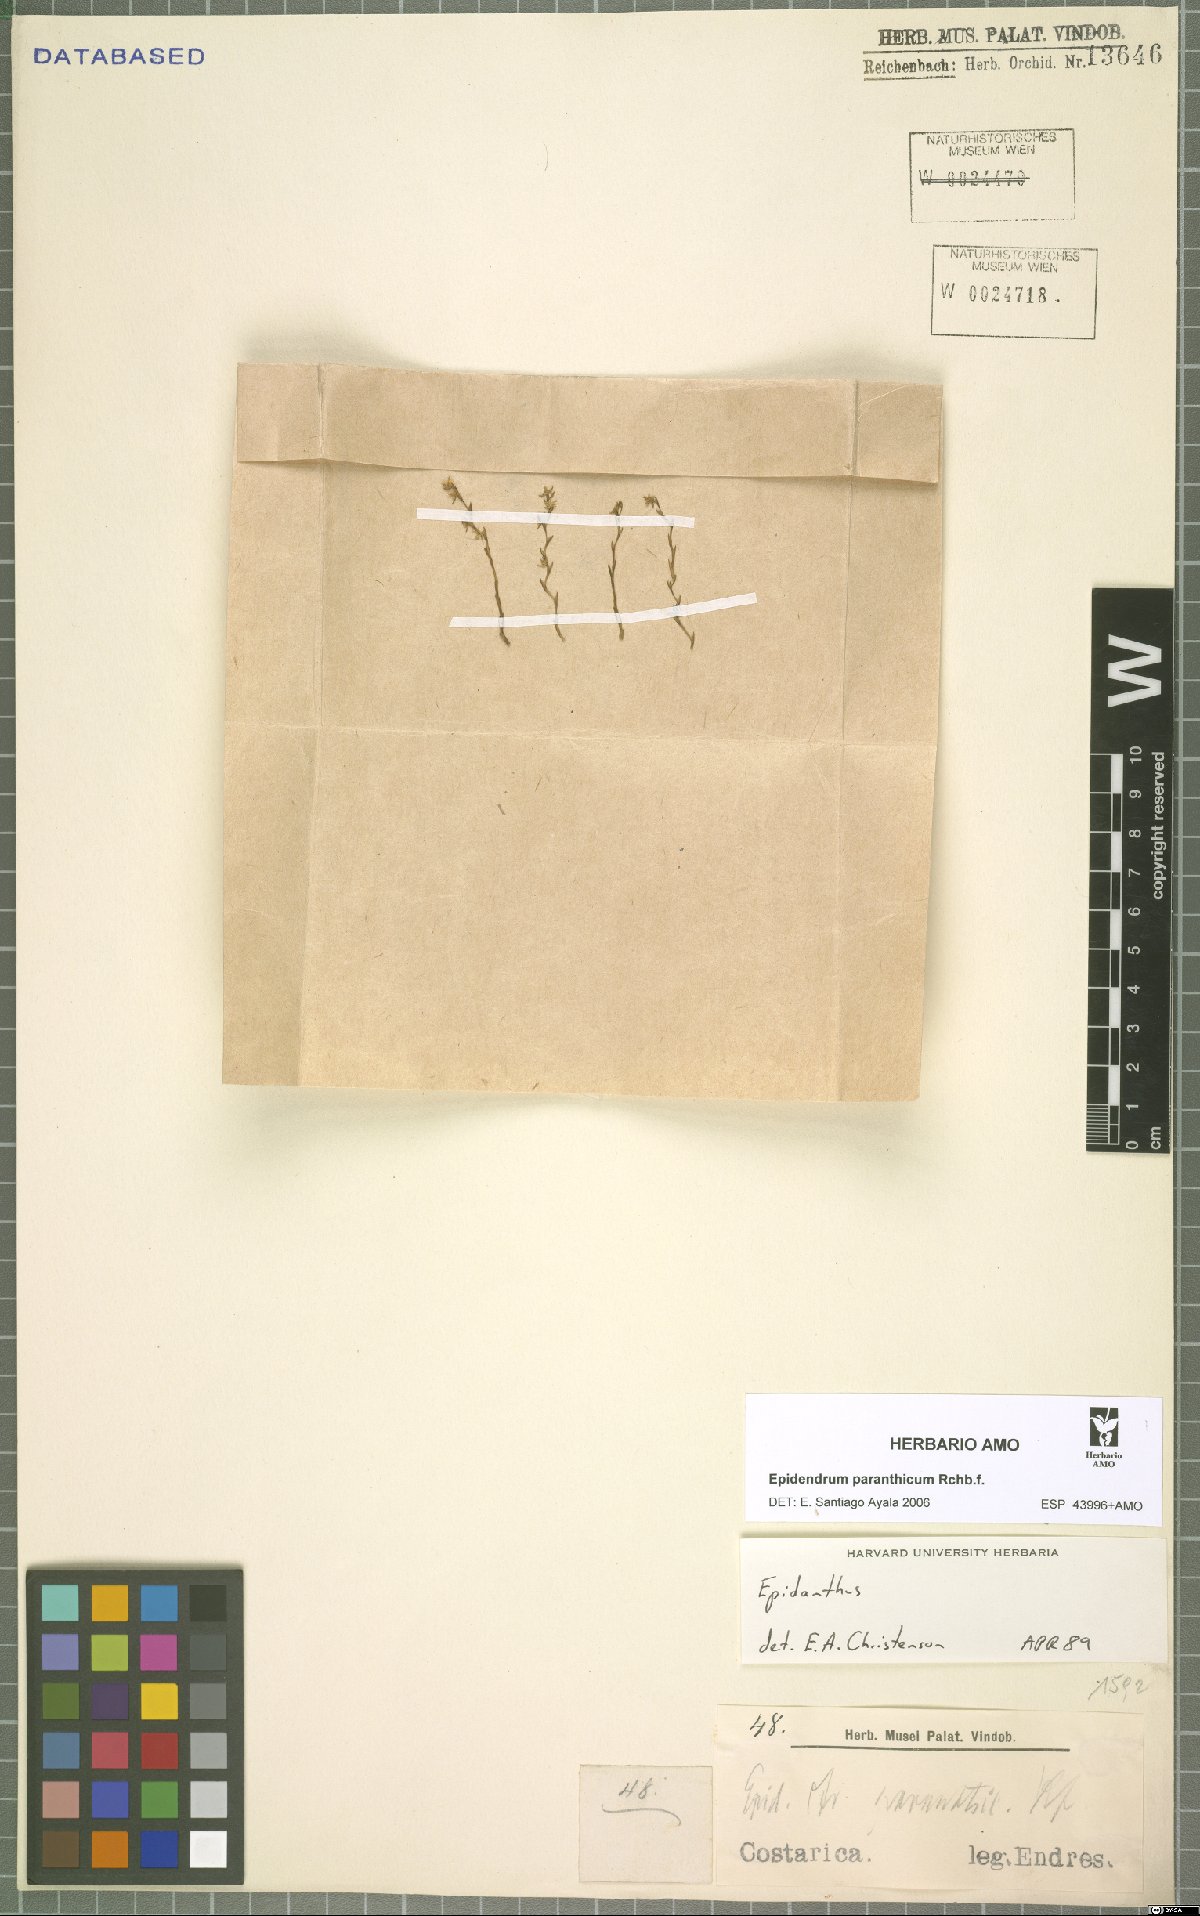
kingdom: Plantae
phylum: Tracheophyta
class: Liliopsida
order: Asparagales
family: Orchidaceae
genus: Epidendrum
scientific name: Epidendrum paranthicum
